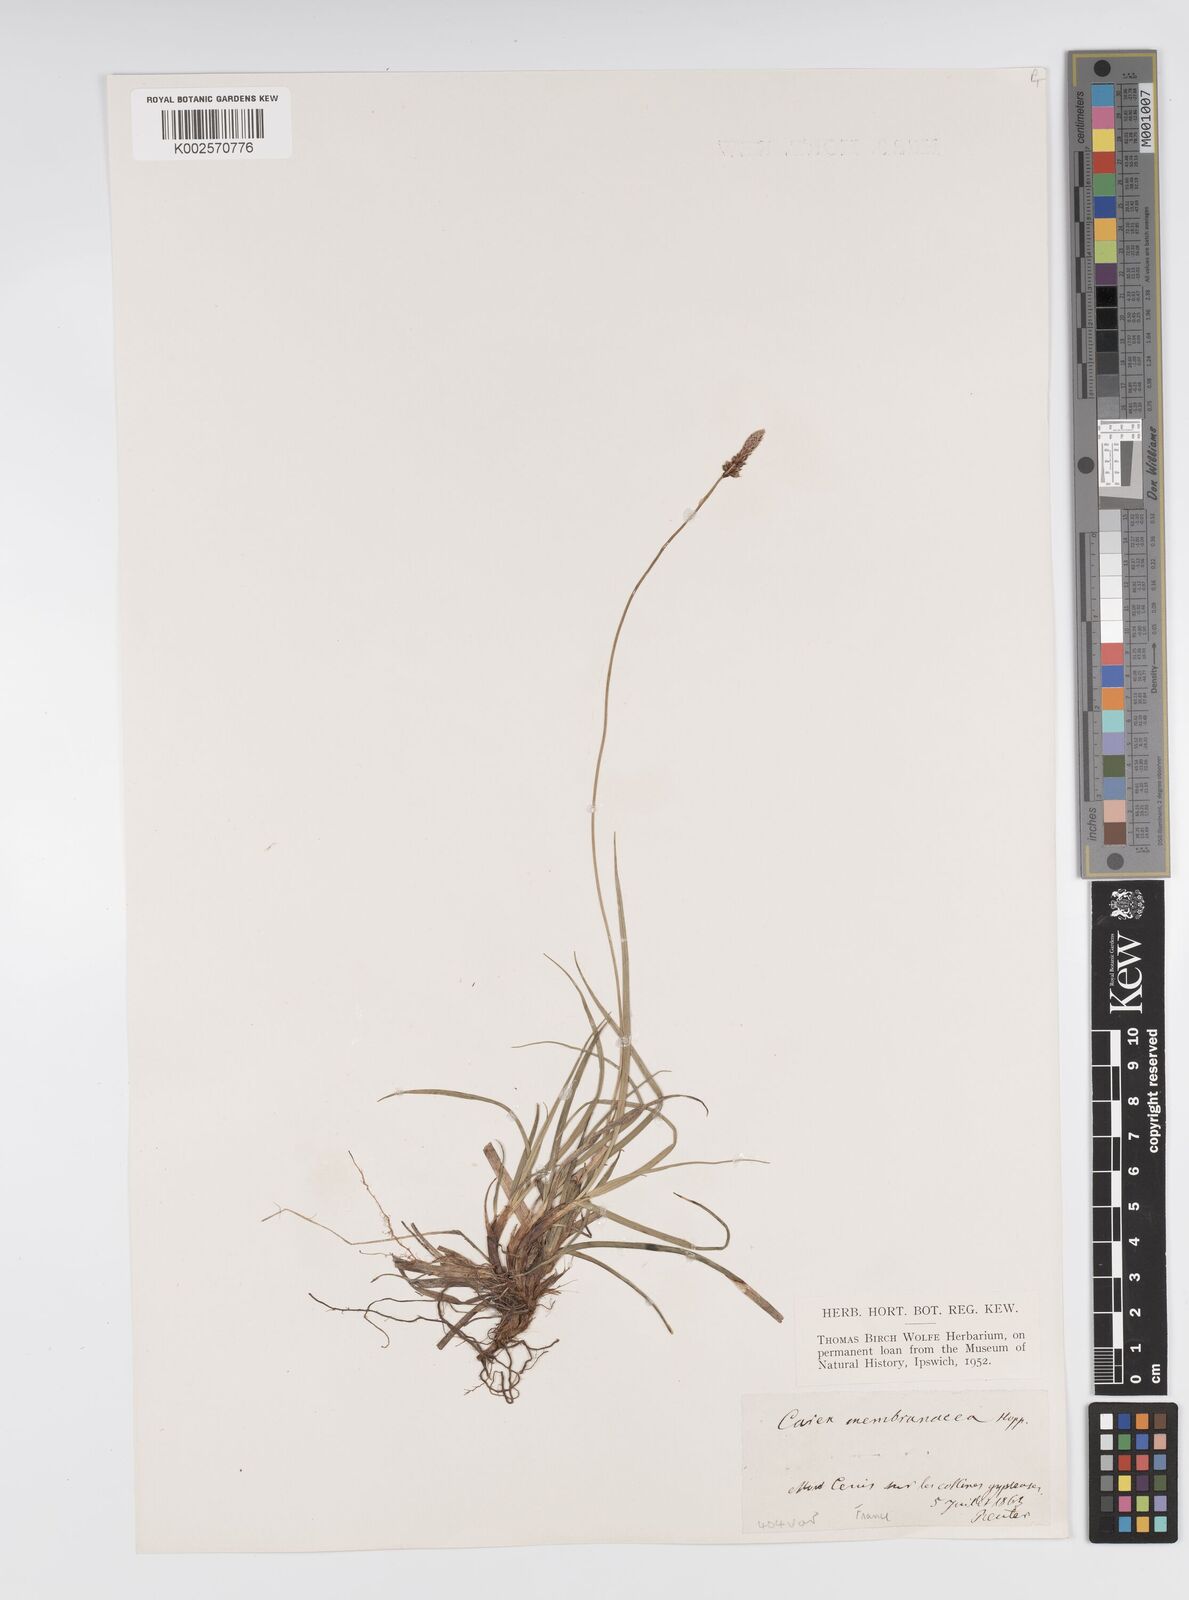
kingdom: Plantae
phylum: Tracheophyta
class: Liliopsida
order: Poales
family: Cyperaceae
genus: Carex
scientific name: Carex ericetorum
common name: Rare spring-sedge
